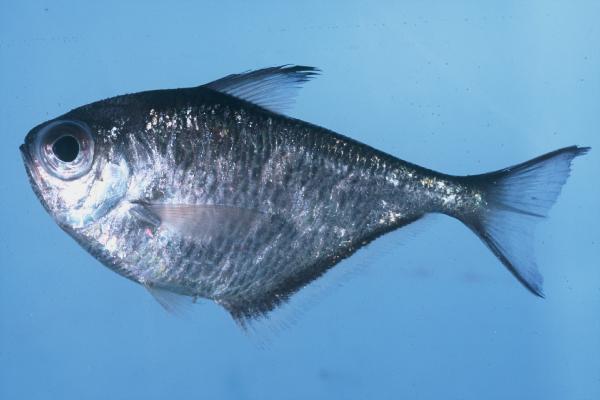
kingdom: Animalia
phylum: Chordata
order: Perciformes
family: Pempheridae
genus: Pempheris
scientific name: Pempheris heemstraorum
